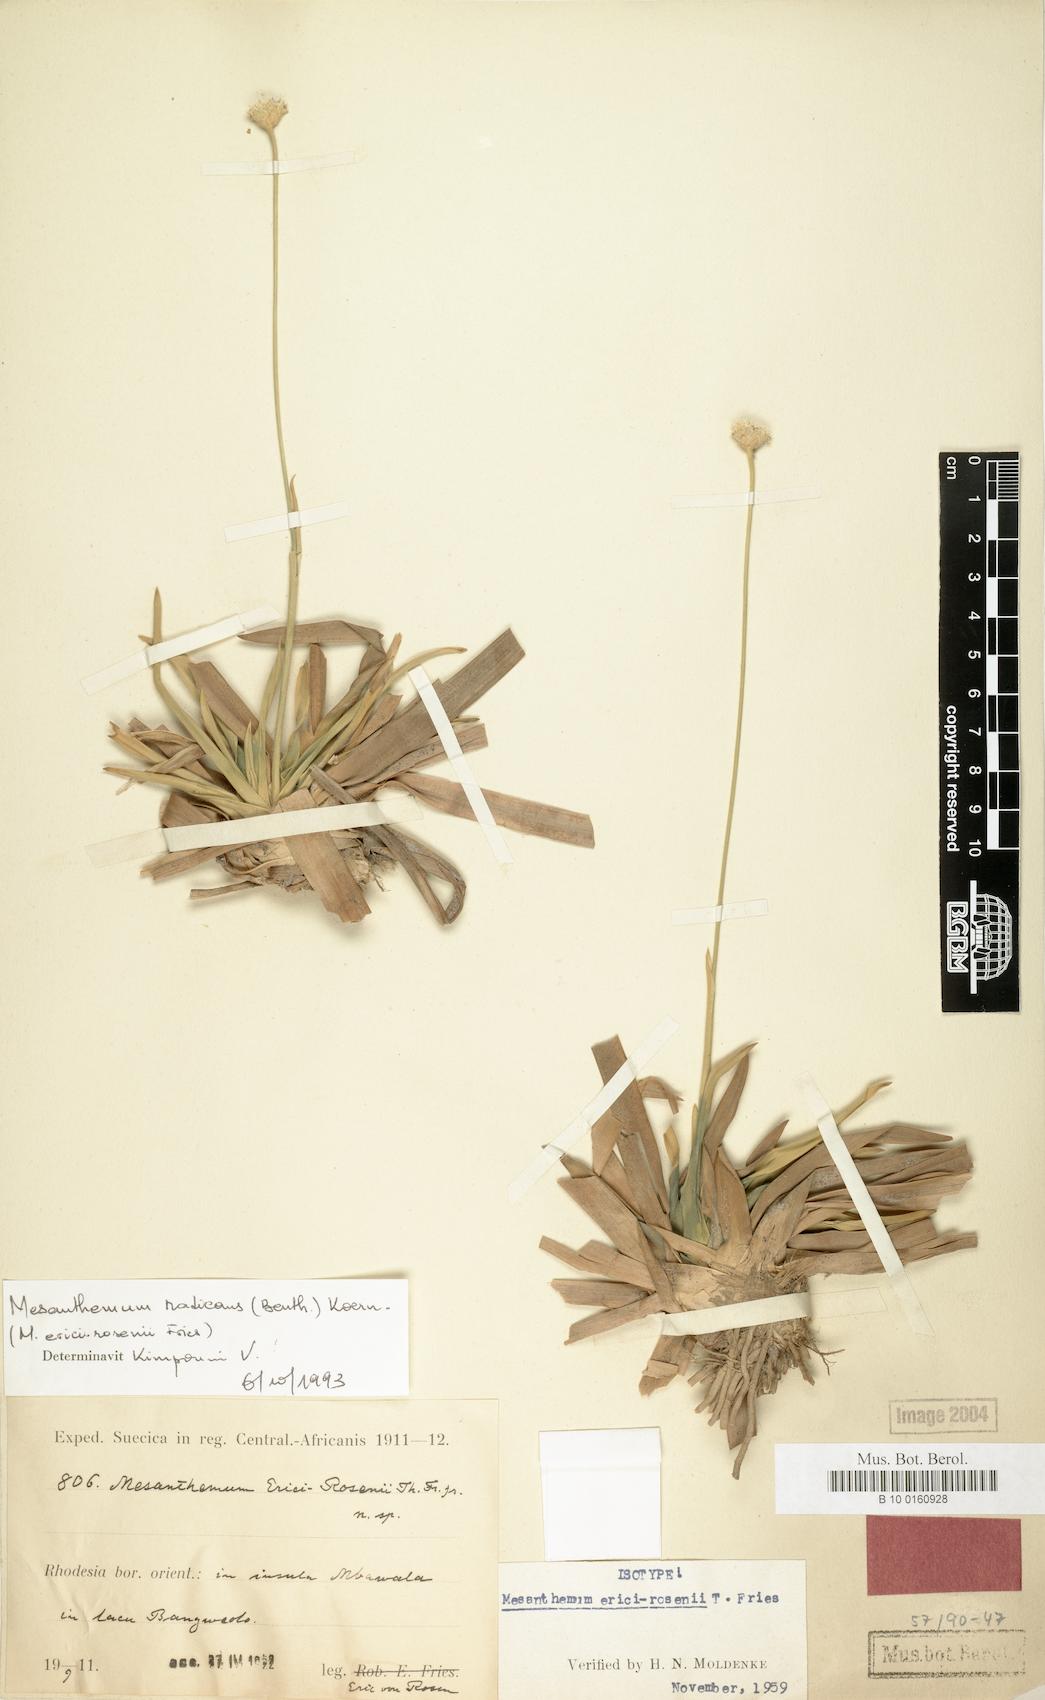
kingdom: Plantae
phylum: Tracheophyta
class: Liliopsida
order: Poales
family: Eriocaulaceae
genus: Mesanthemum
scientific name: Mesanthemum radicans
